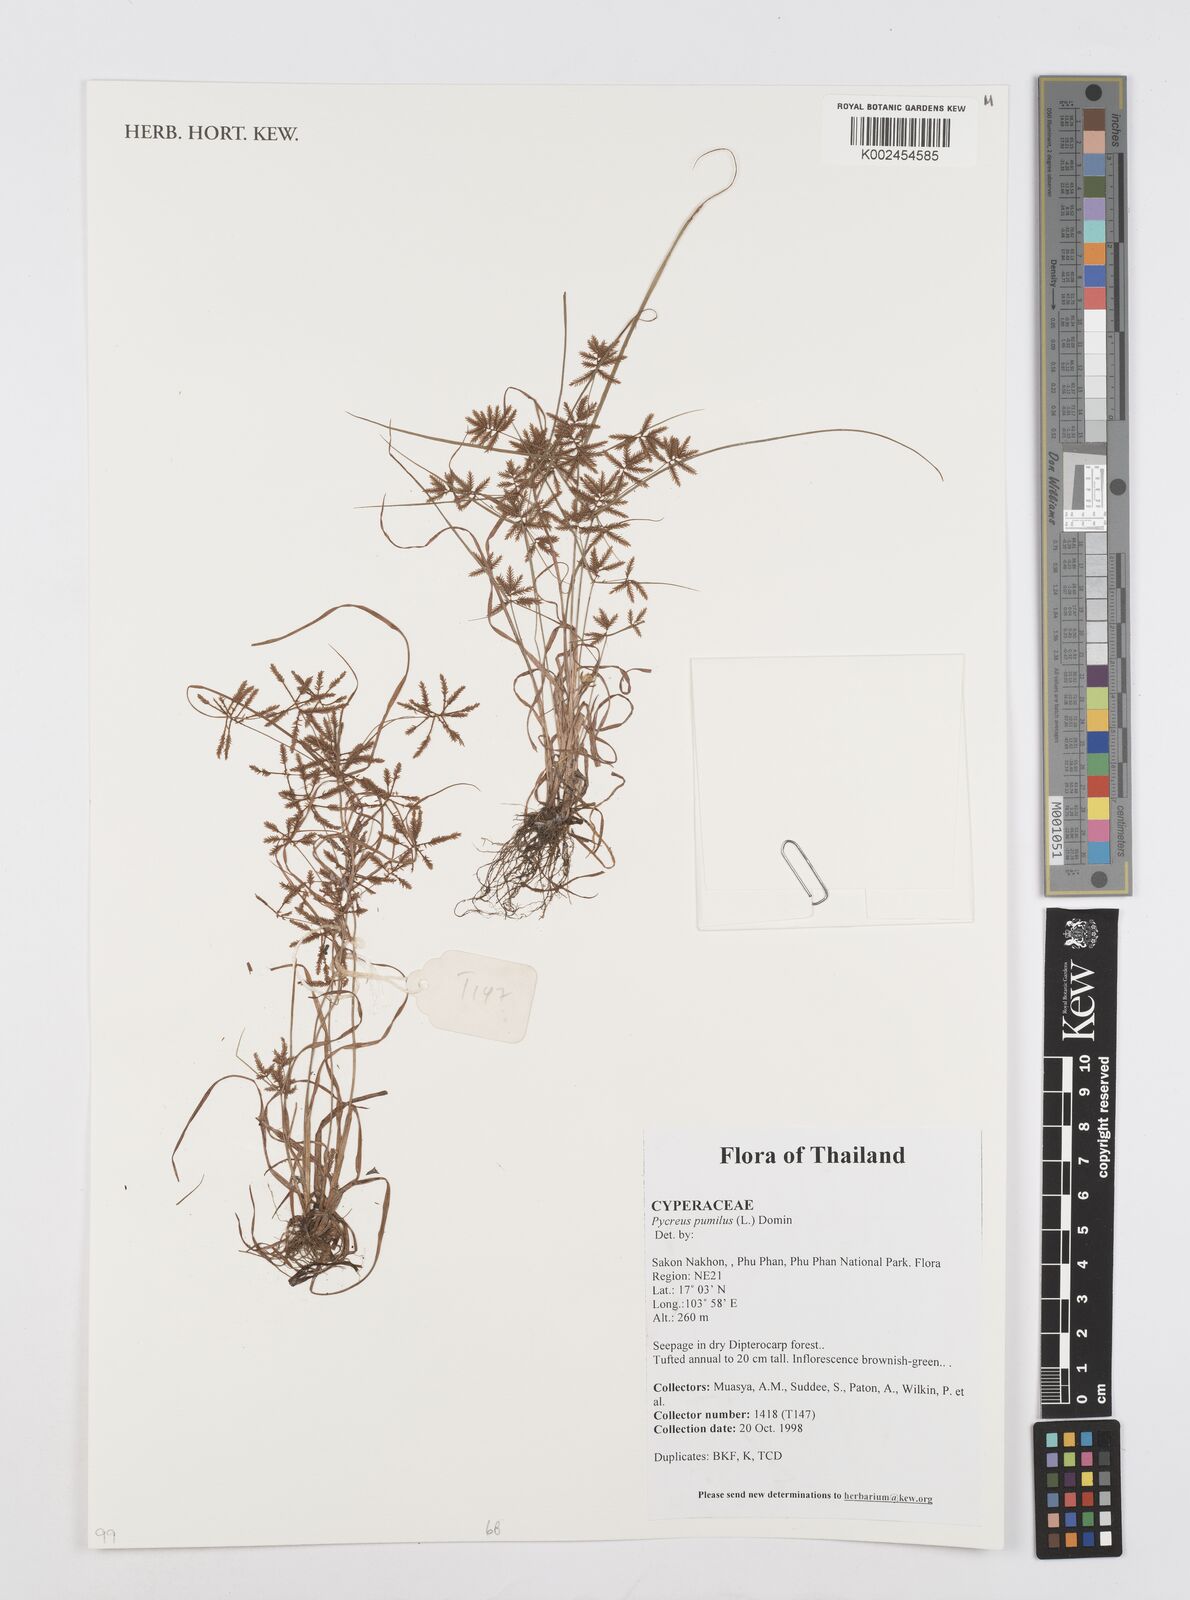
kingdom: Plantae
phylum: Tracheophyta
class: Liliopsida
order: Poales
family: Cyperaceae
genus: Cyperus
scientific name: Cyperus pumilus
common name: Low flatsedge
